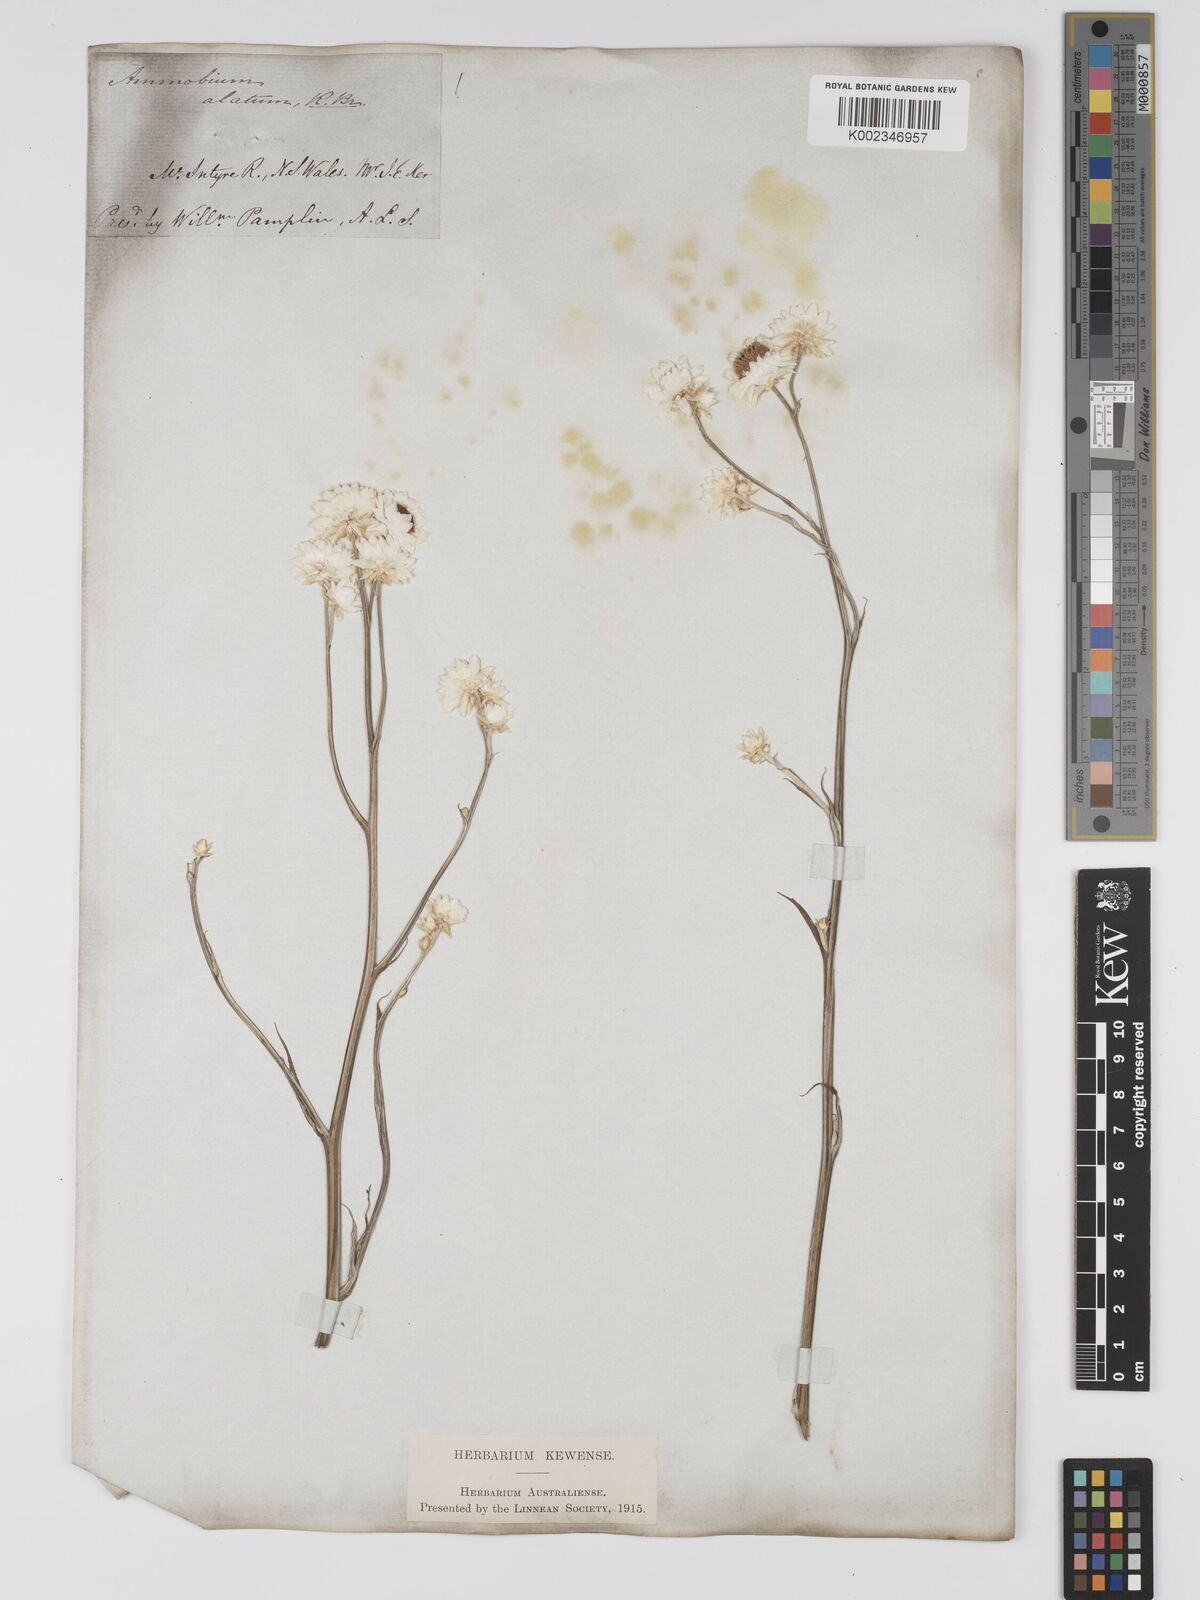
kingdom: Plantae
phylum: Tracheophyta
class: Magnoliopsida
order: Asterales
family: Asteraceae
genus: Ammobium
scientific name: Ammobium alatum
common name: Winged everlasting
